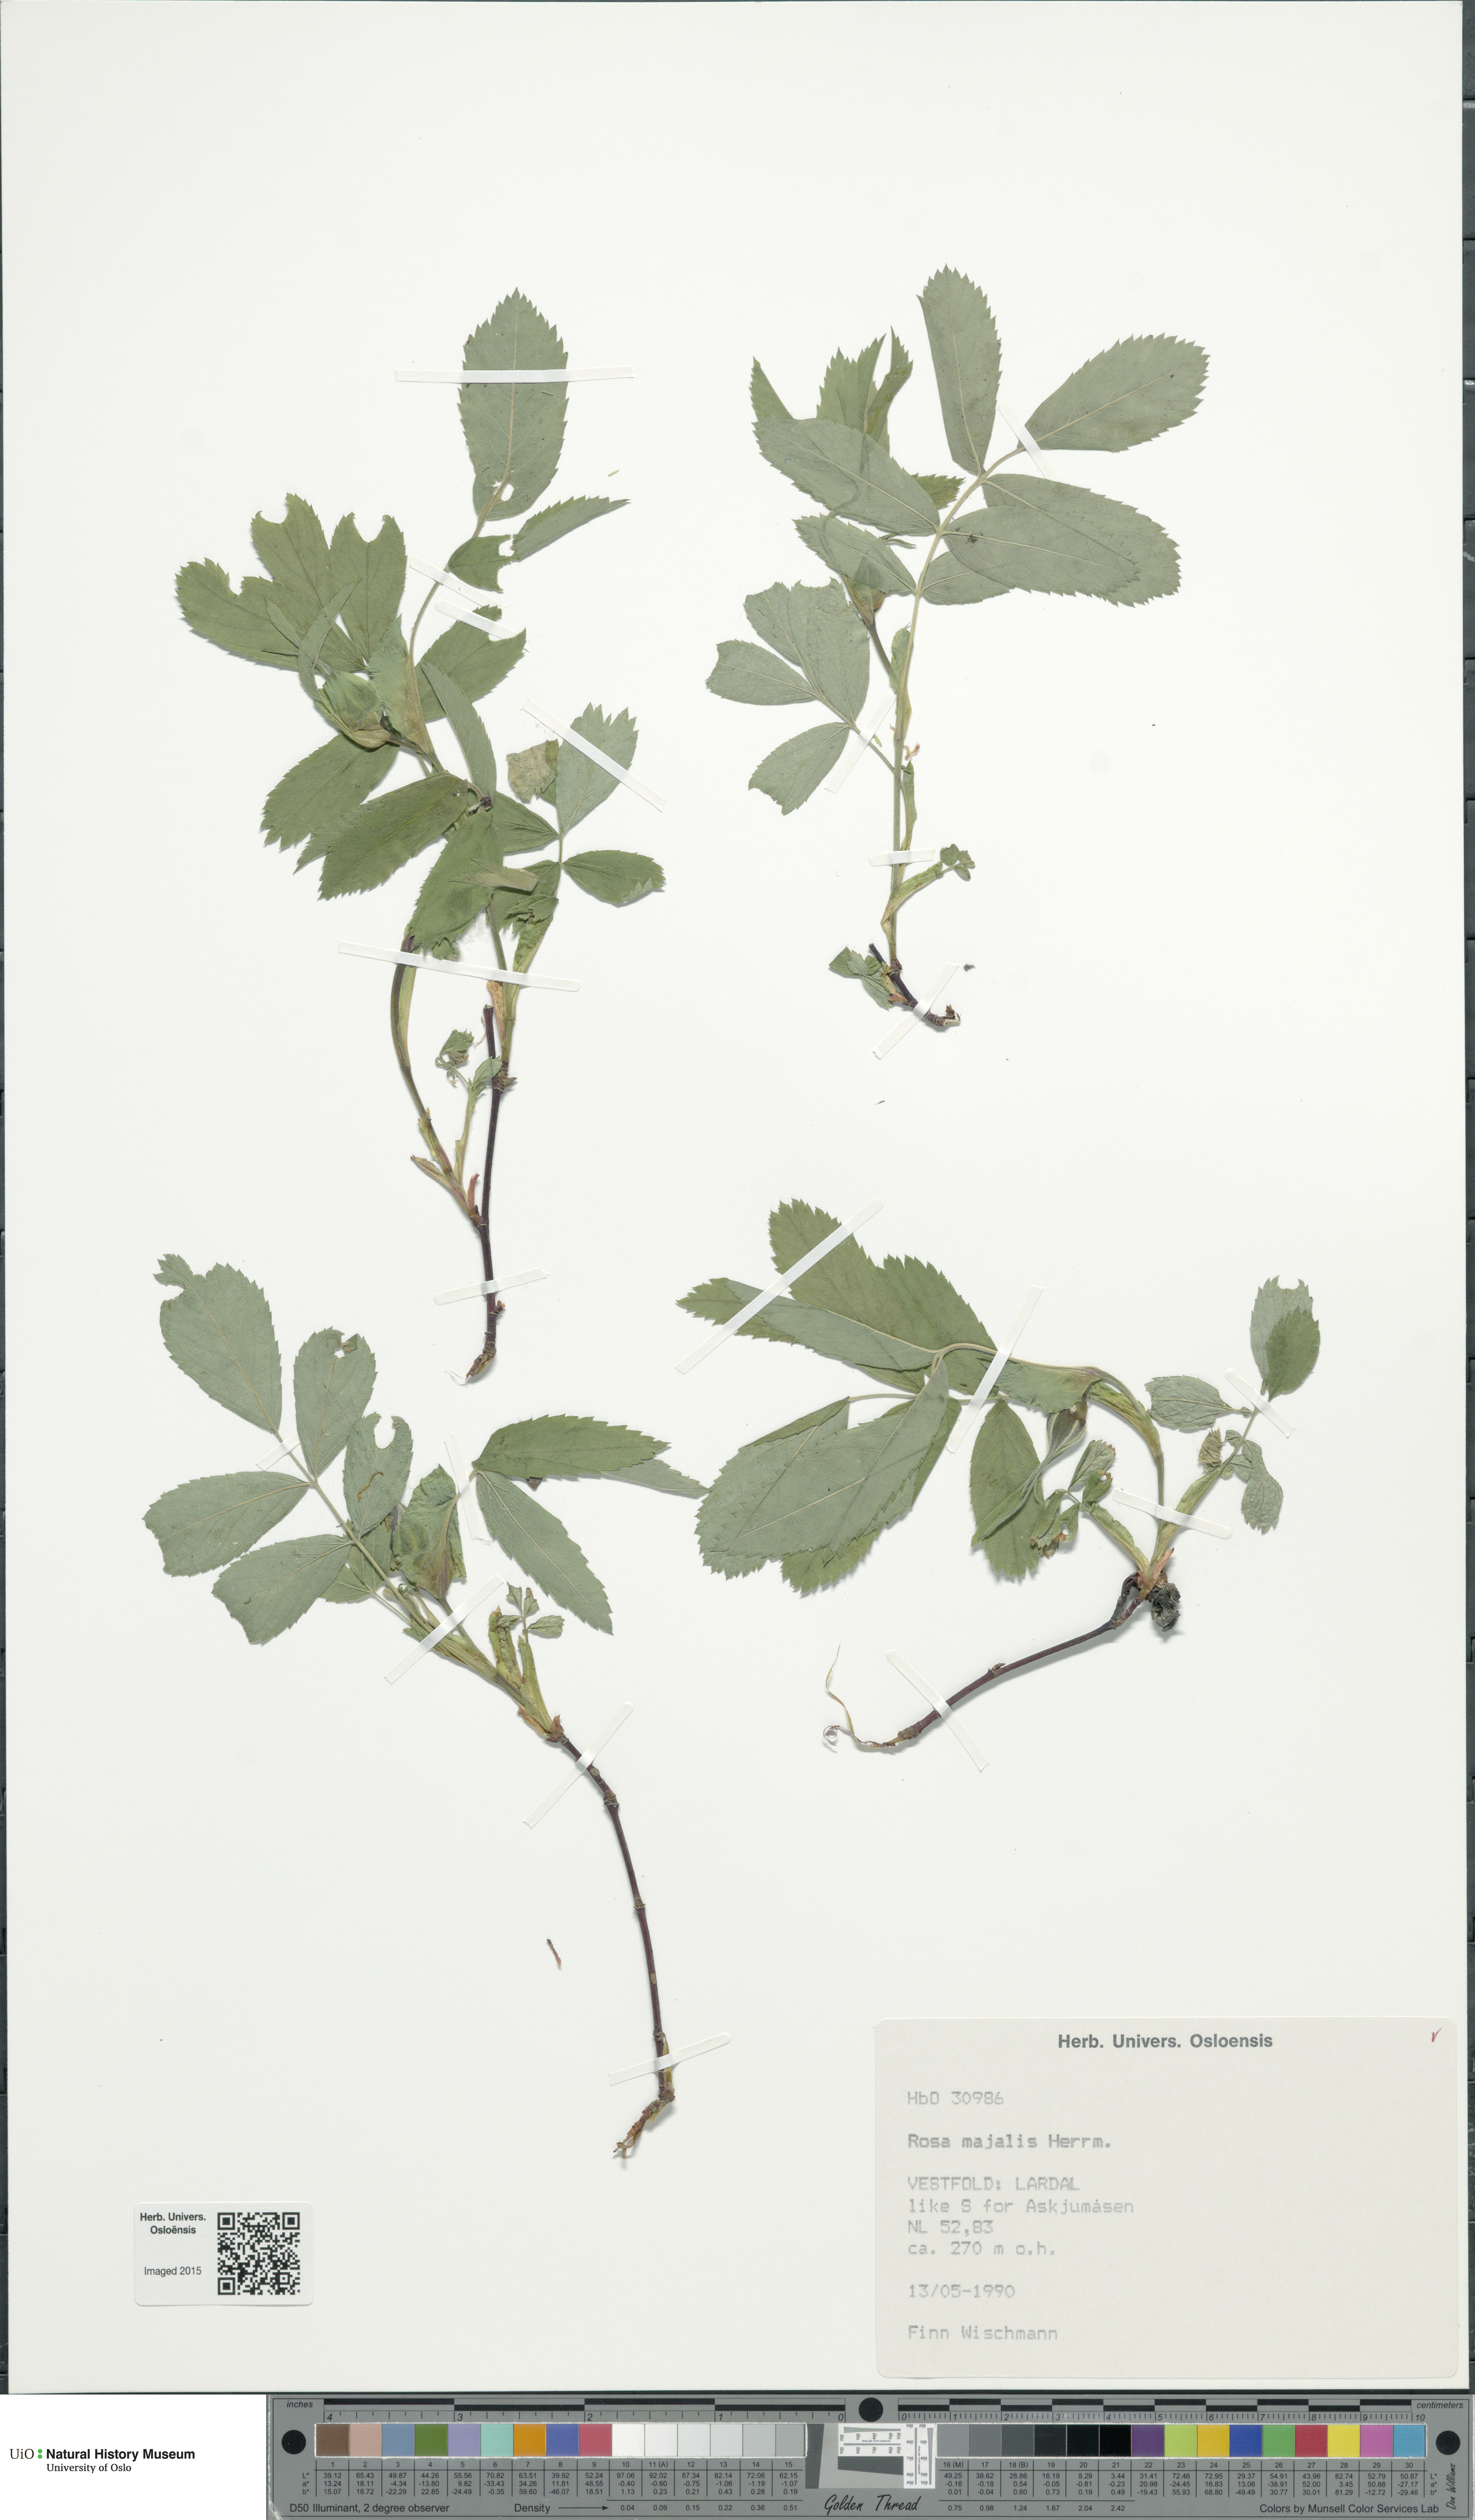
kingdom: Plantae
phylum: Tracheophyta
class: Magnoliopsida
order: Rosales
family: Rosaceae
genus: Rosa
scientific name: Rosa majalis
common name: Cinnamon rose
